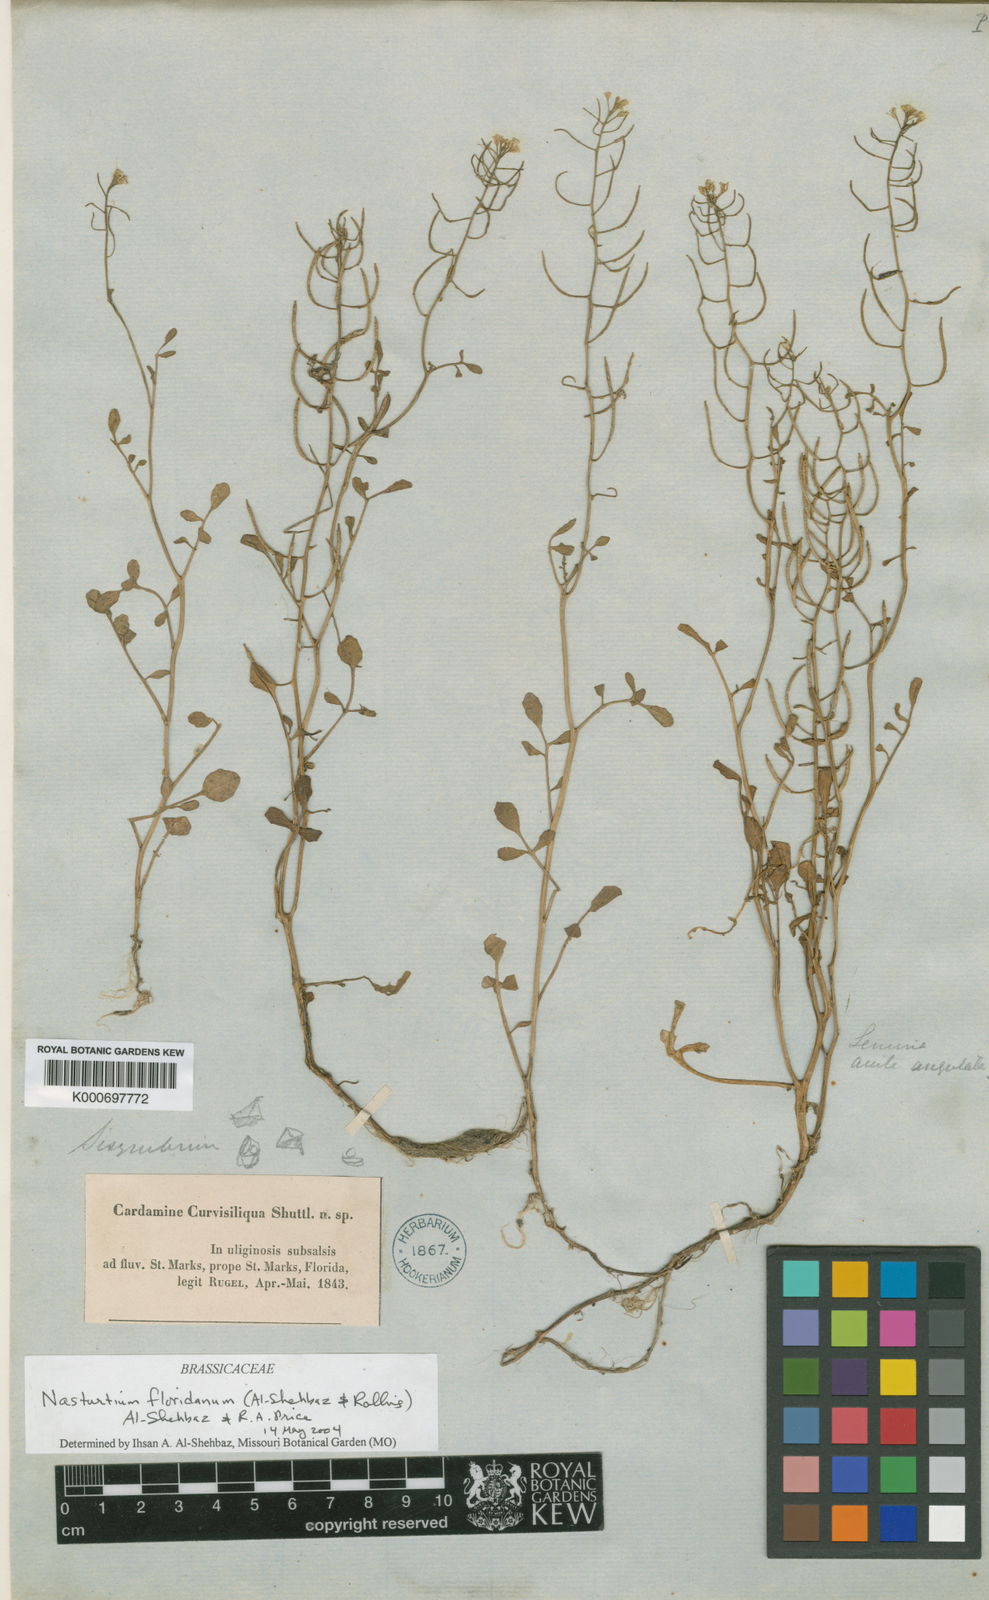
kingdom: Plantae
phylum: Tracheophyta
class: Magnoliopsida
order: Brassicales
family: Brassicaceae
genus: Nasturtium
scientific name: Nasturtium floridanum
